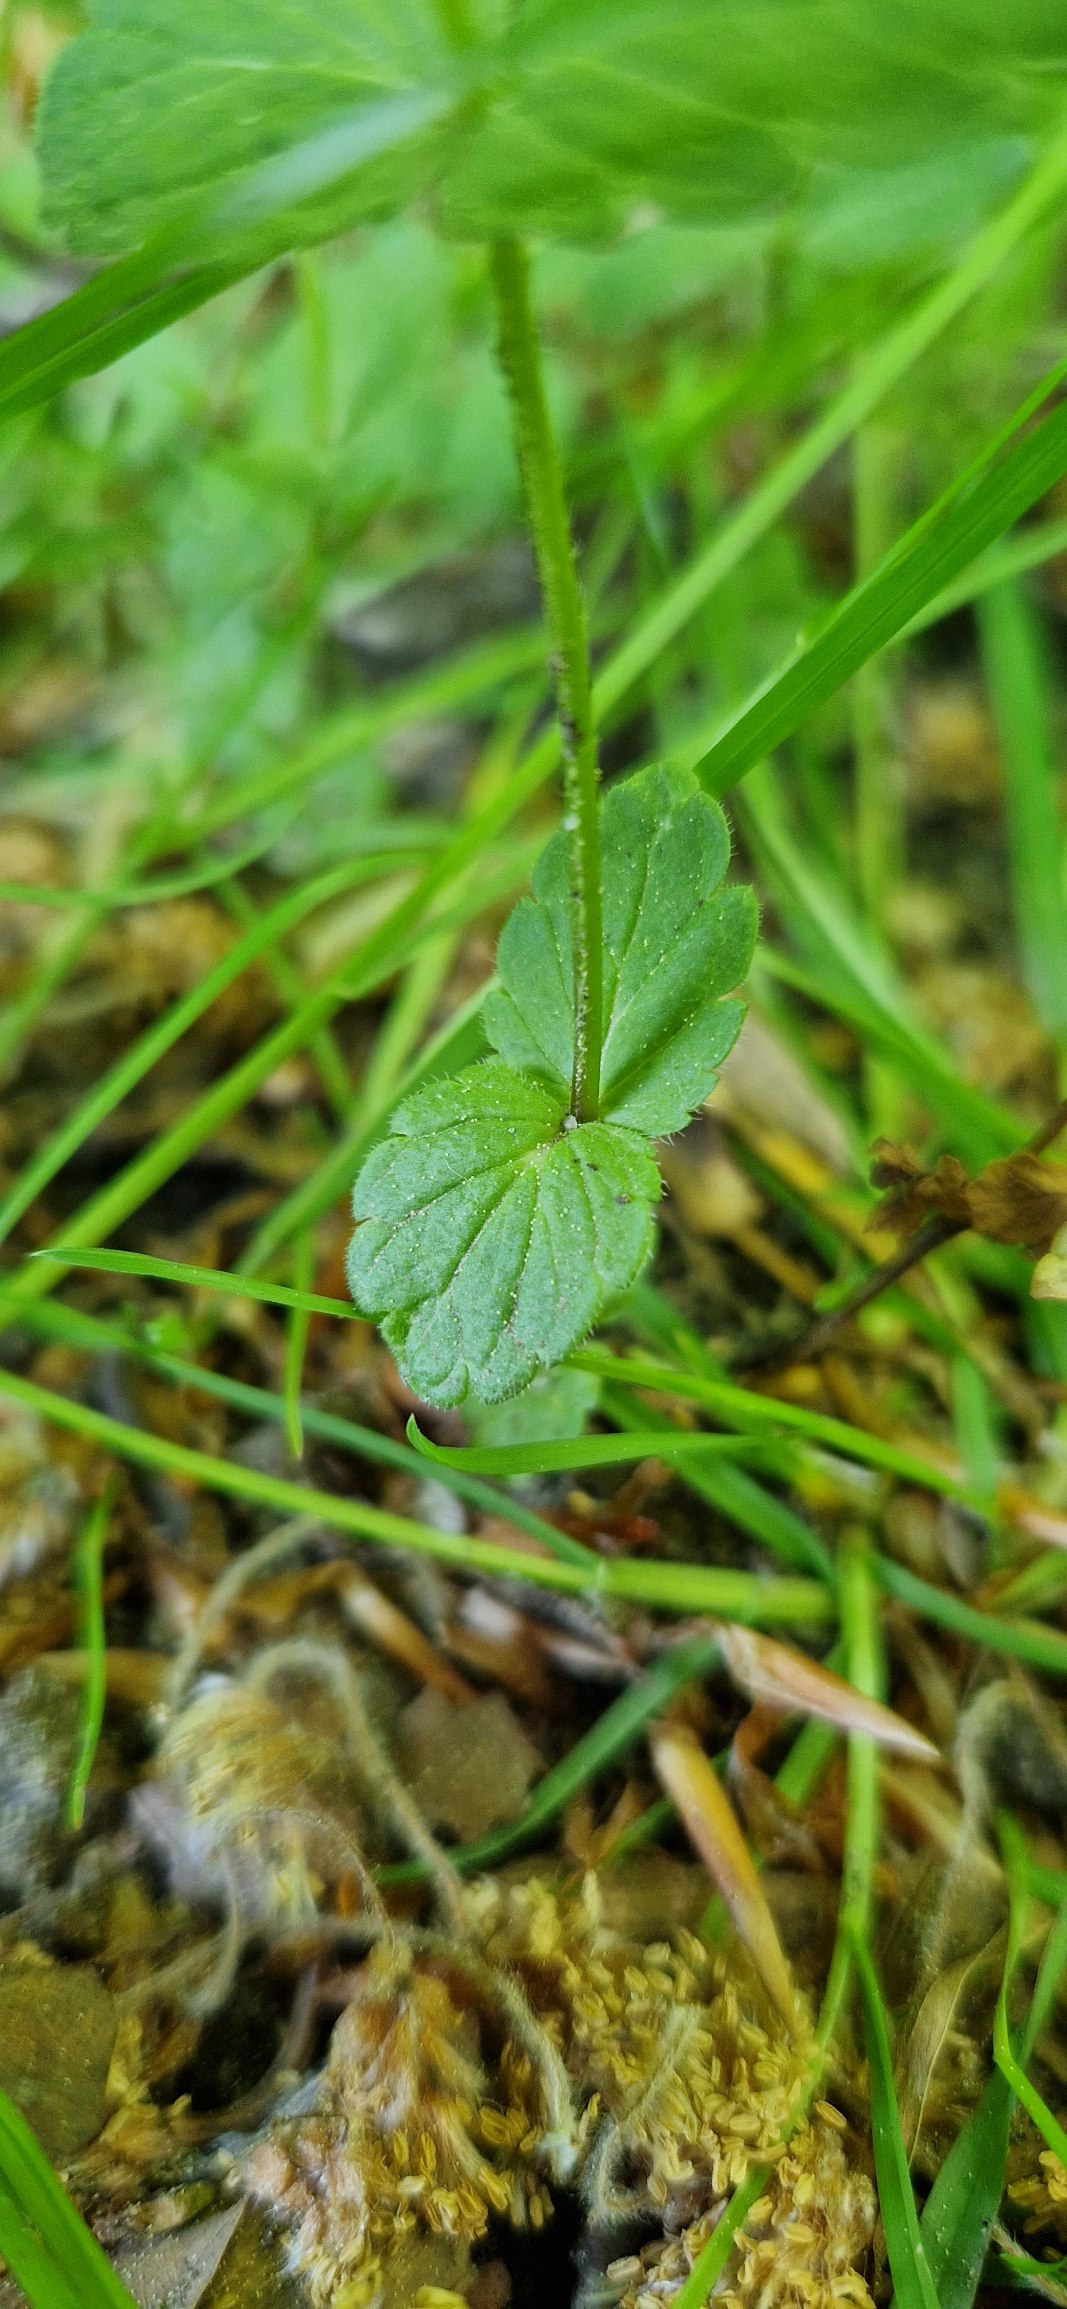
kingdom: Plantae
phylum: Tracheophyta
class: Magnoliopsida
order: Lamiales
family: Plantaginaceae
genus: Veronica
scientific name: Veronica chamaedrys
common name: Tveskægget ærenpris
